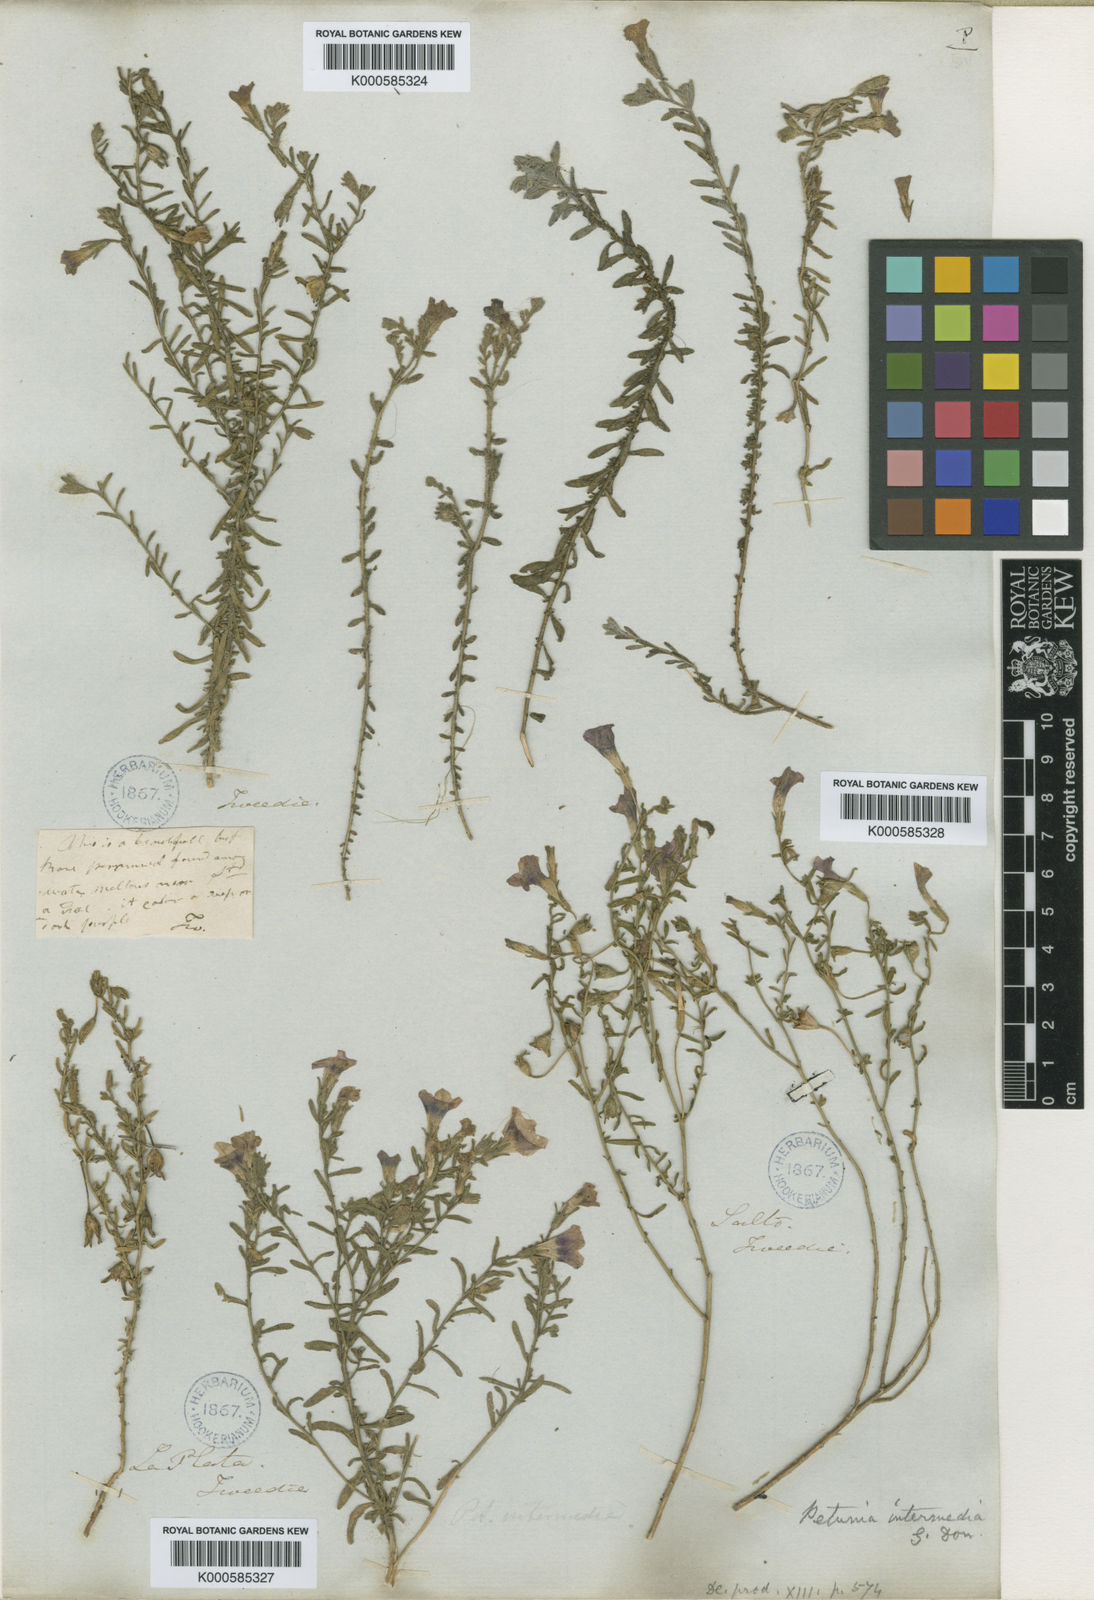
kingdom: Plantae
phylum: Tracheophyta
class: Magnoliopsida
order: Solanales
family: Solanaceae
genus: Calibrachoa
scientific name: Calibrachoa thymifolia
